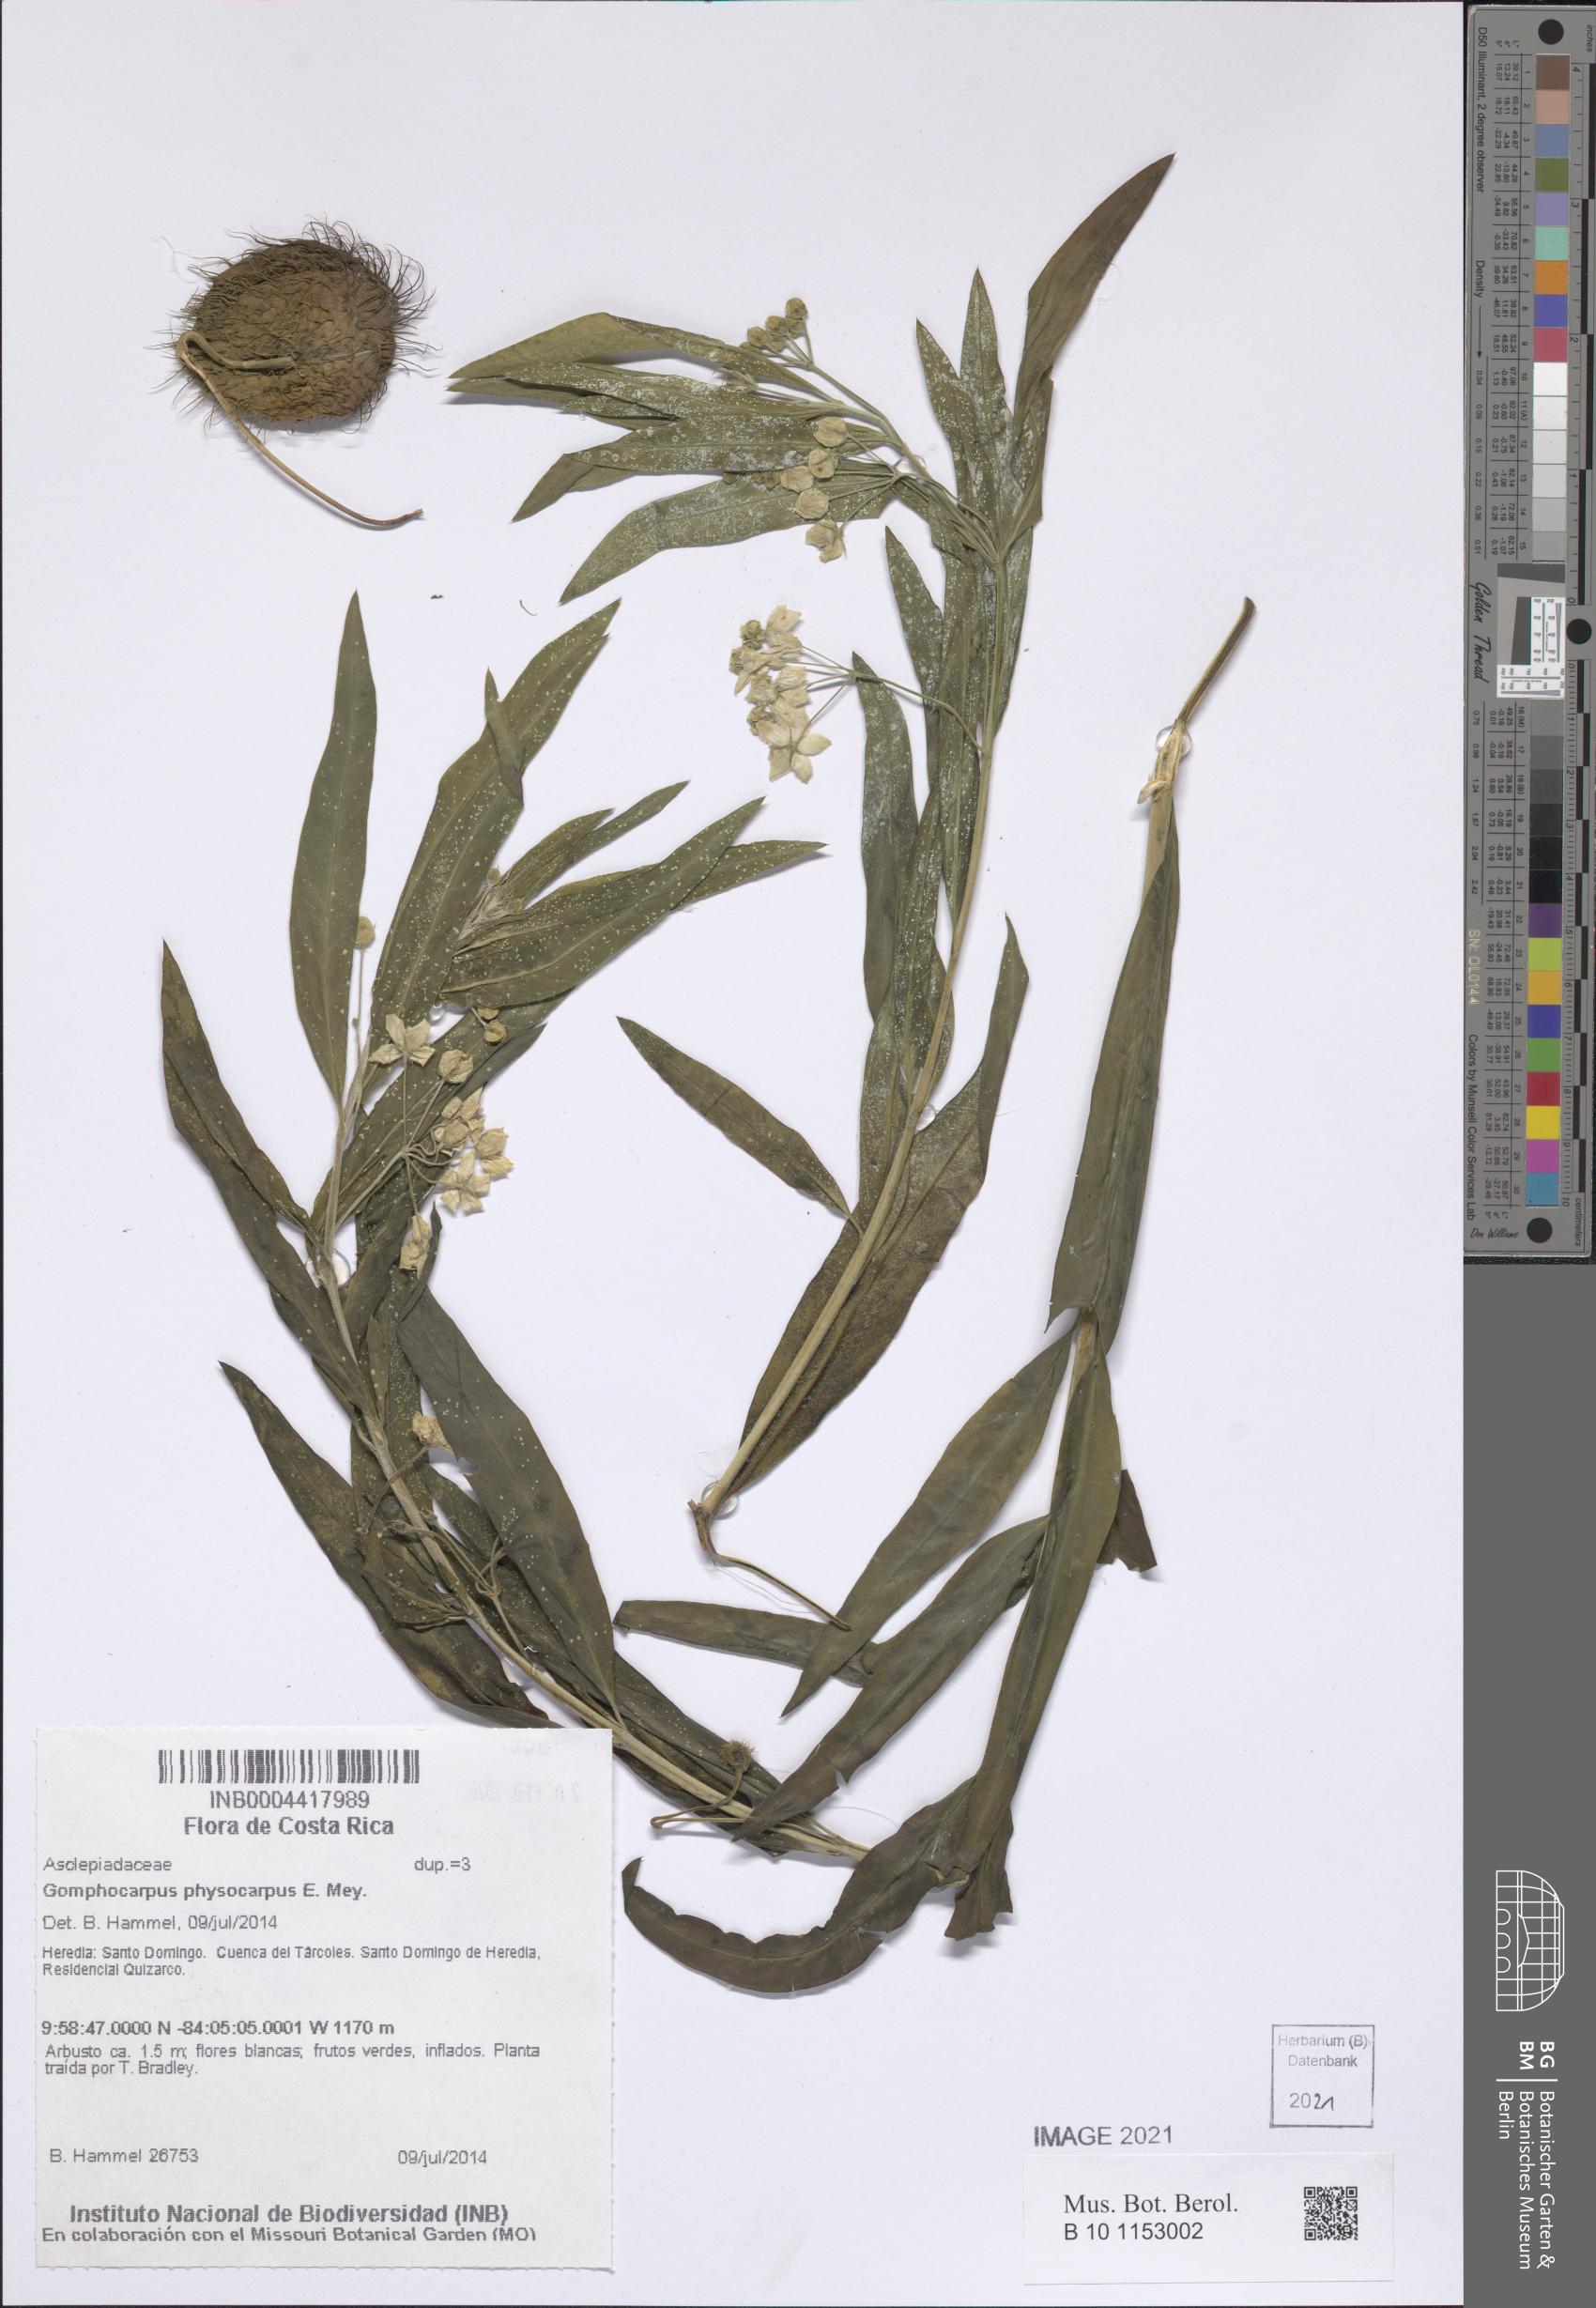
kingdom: Plantae
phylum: Tracheophyta
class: Magnoliopsida
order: Gentianales
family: Apocynaceae
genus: Gomphocarpus
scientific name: Gomphocarpus physocarpus
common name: Balloon cotton bush
